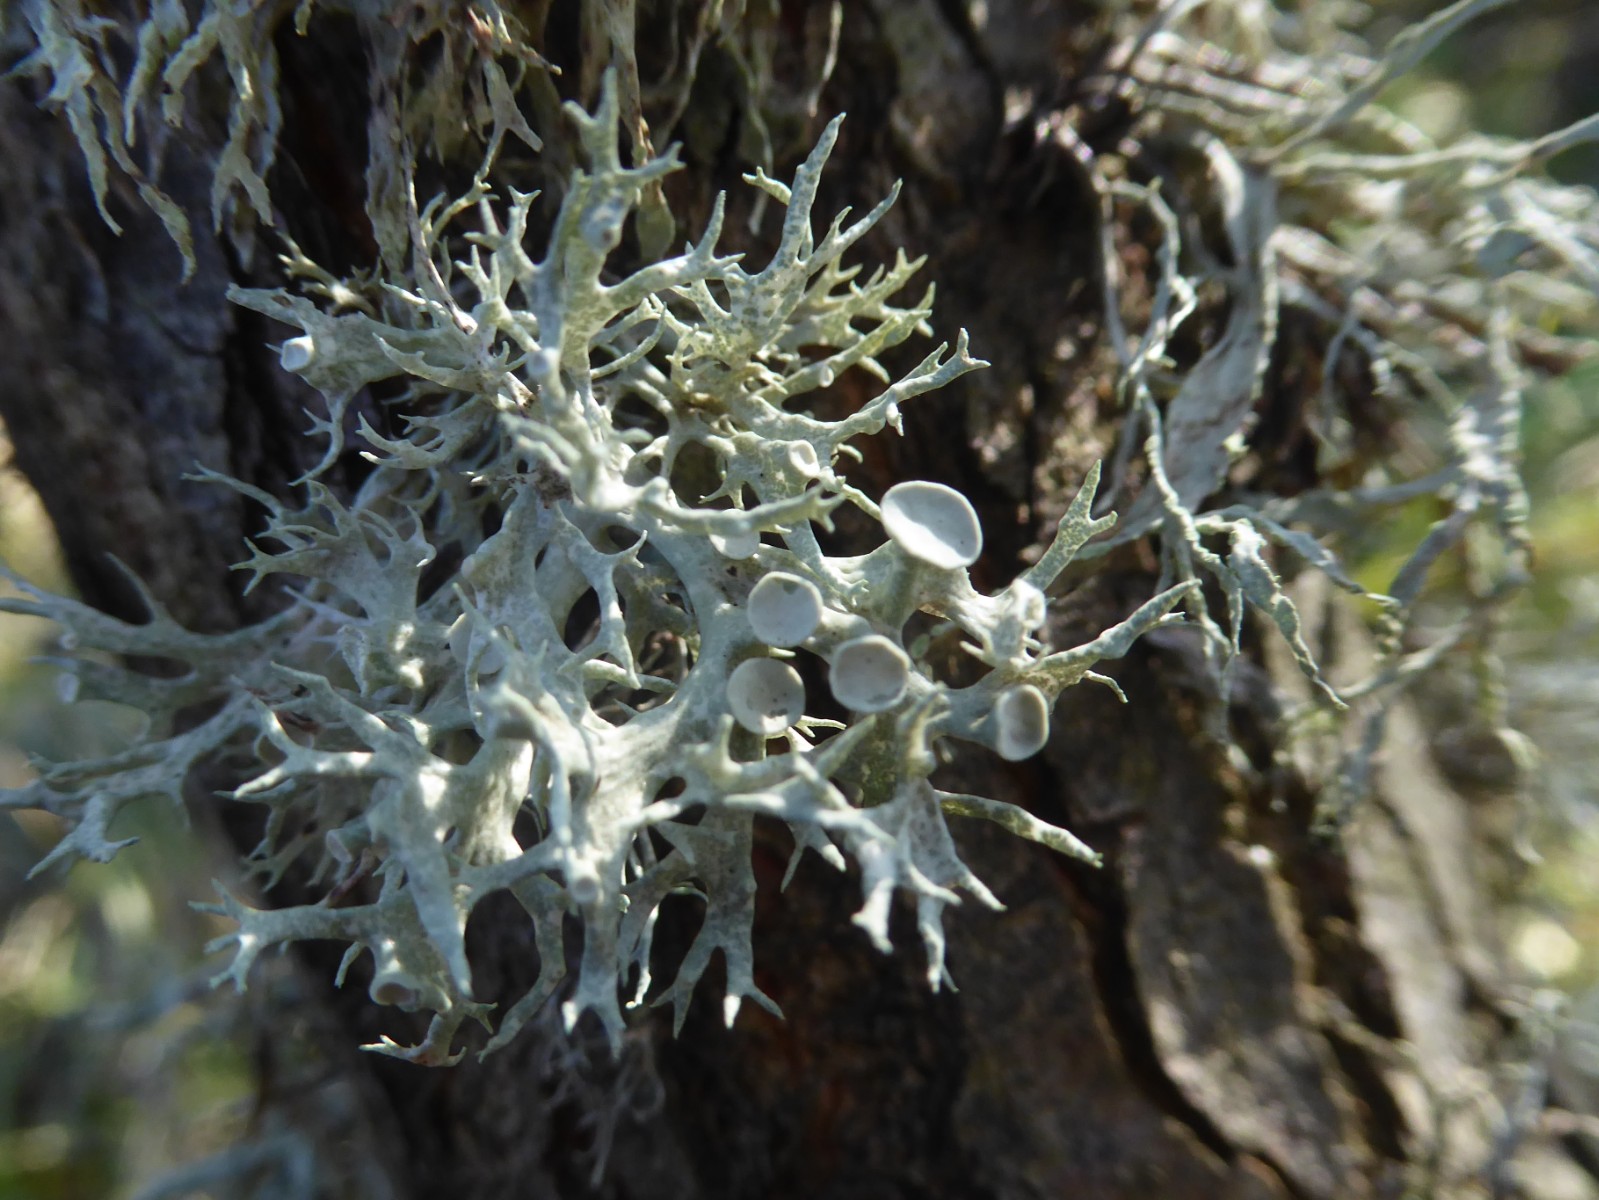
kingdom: Fungi
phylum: Ascomycota
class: Lecanoromycetes
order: Lecanorales
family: Ramalinaceae
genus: Ramalina
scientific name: Ramalina fastigiata
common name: tue-grenlav
